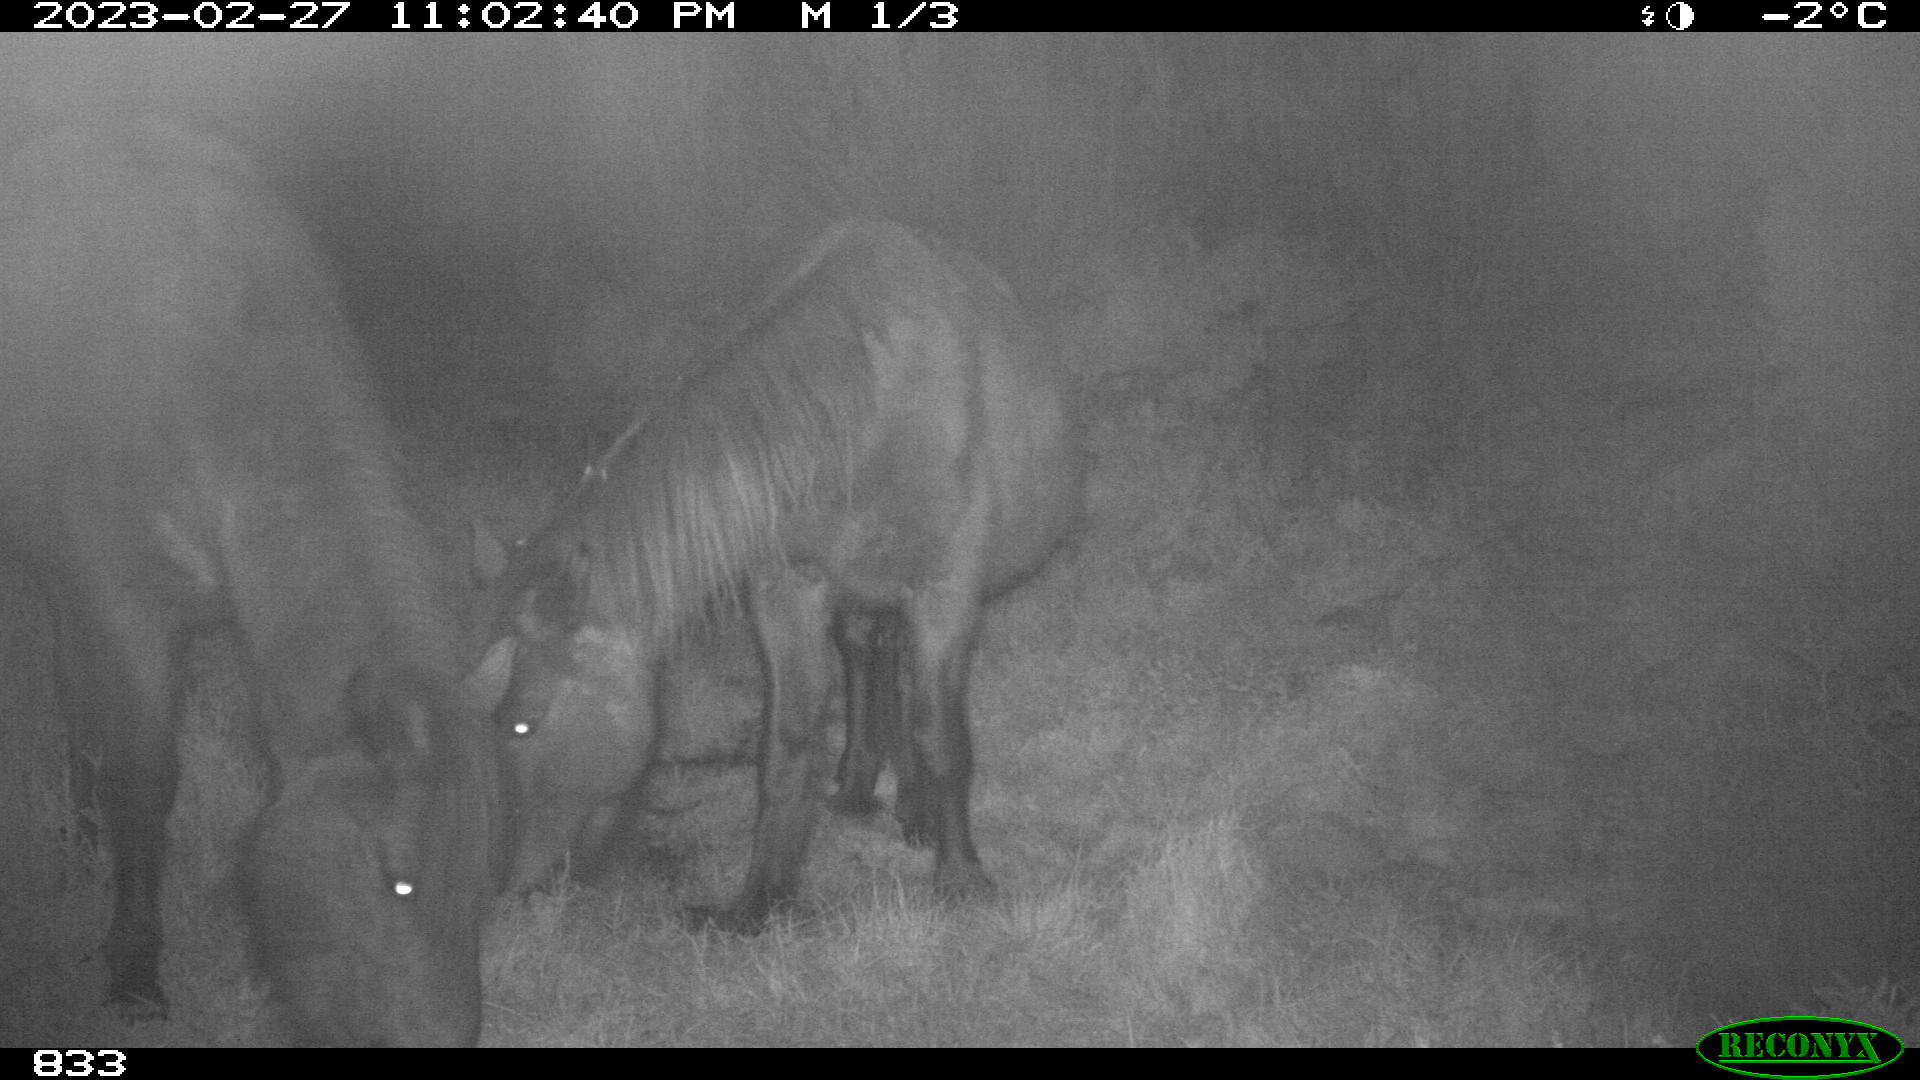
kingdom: Animalia
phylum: Chordata
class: Mammalia
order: Perissodactyla
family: Equidae
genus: Equus
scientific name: Equus caballus
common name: Horse
